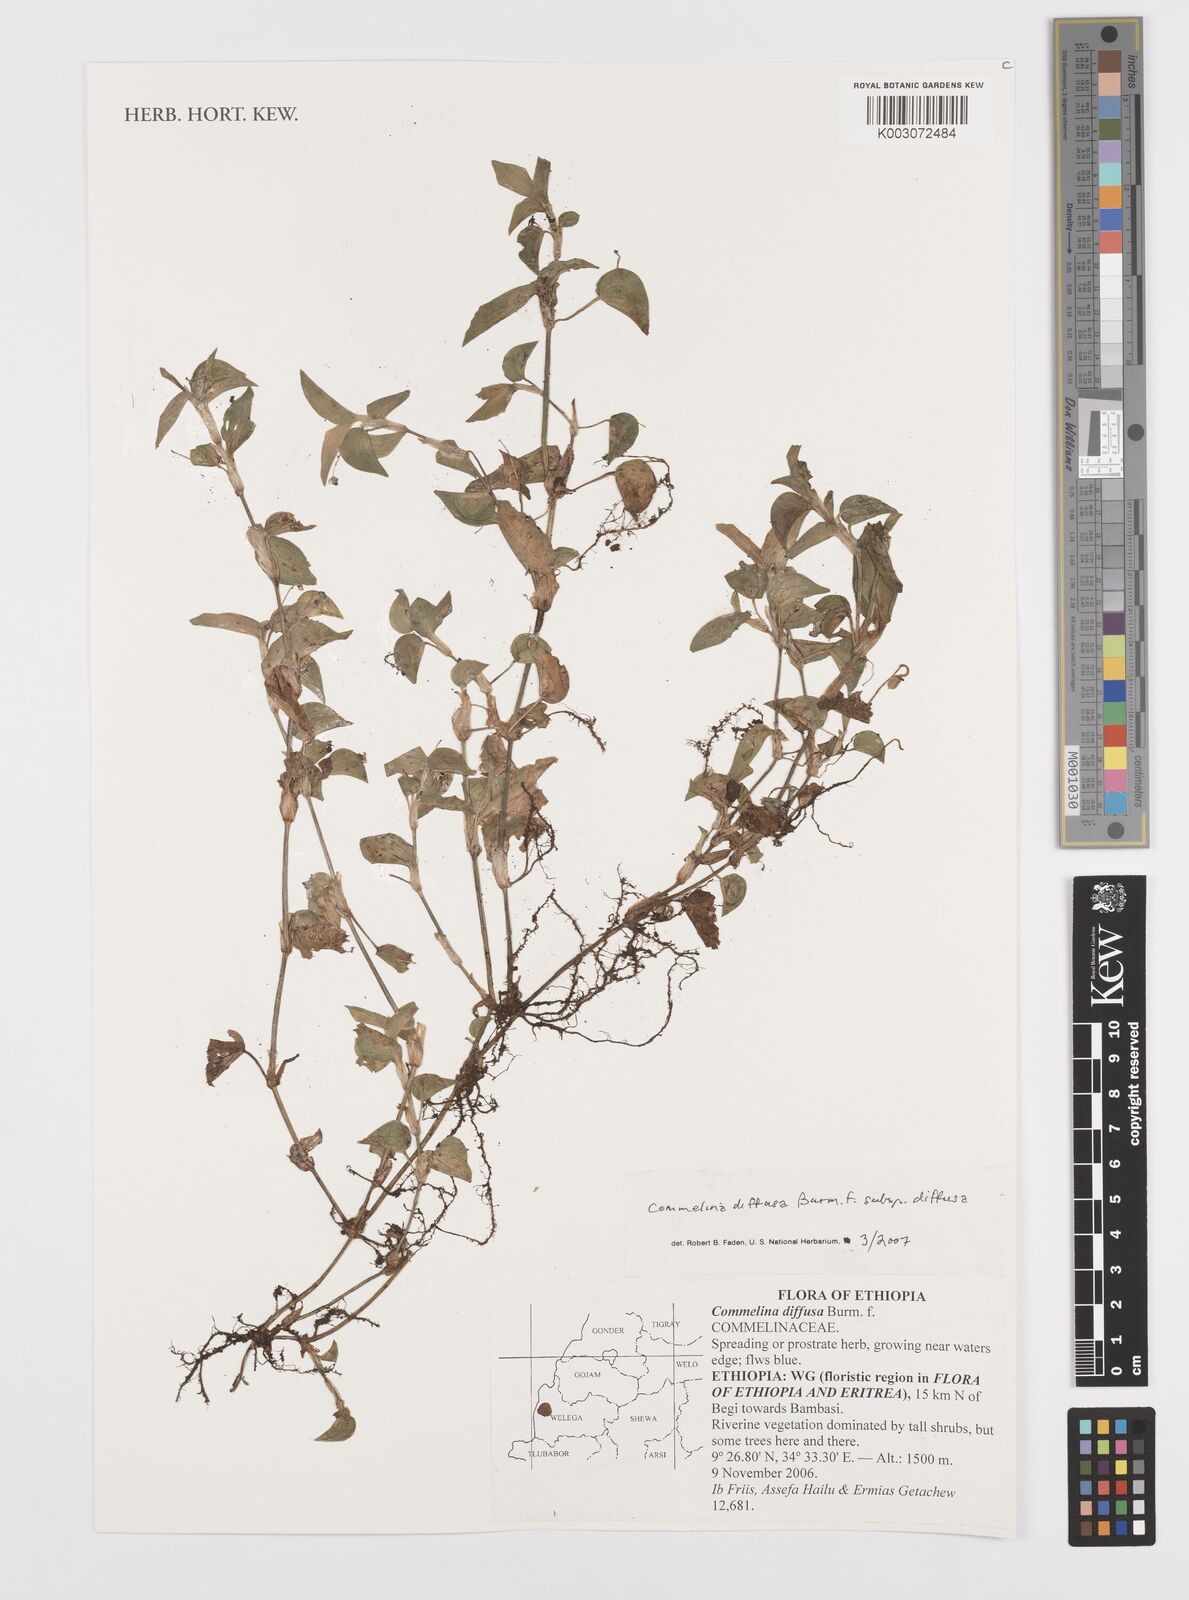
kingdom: Plantae
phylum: Tracheophyta
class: Liliopsida
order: Commelinales
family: Commelinaceae
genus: Commelina
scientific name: Commelina diffusa
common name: Climbing dayflower
